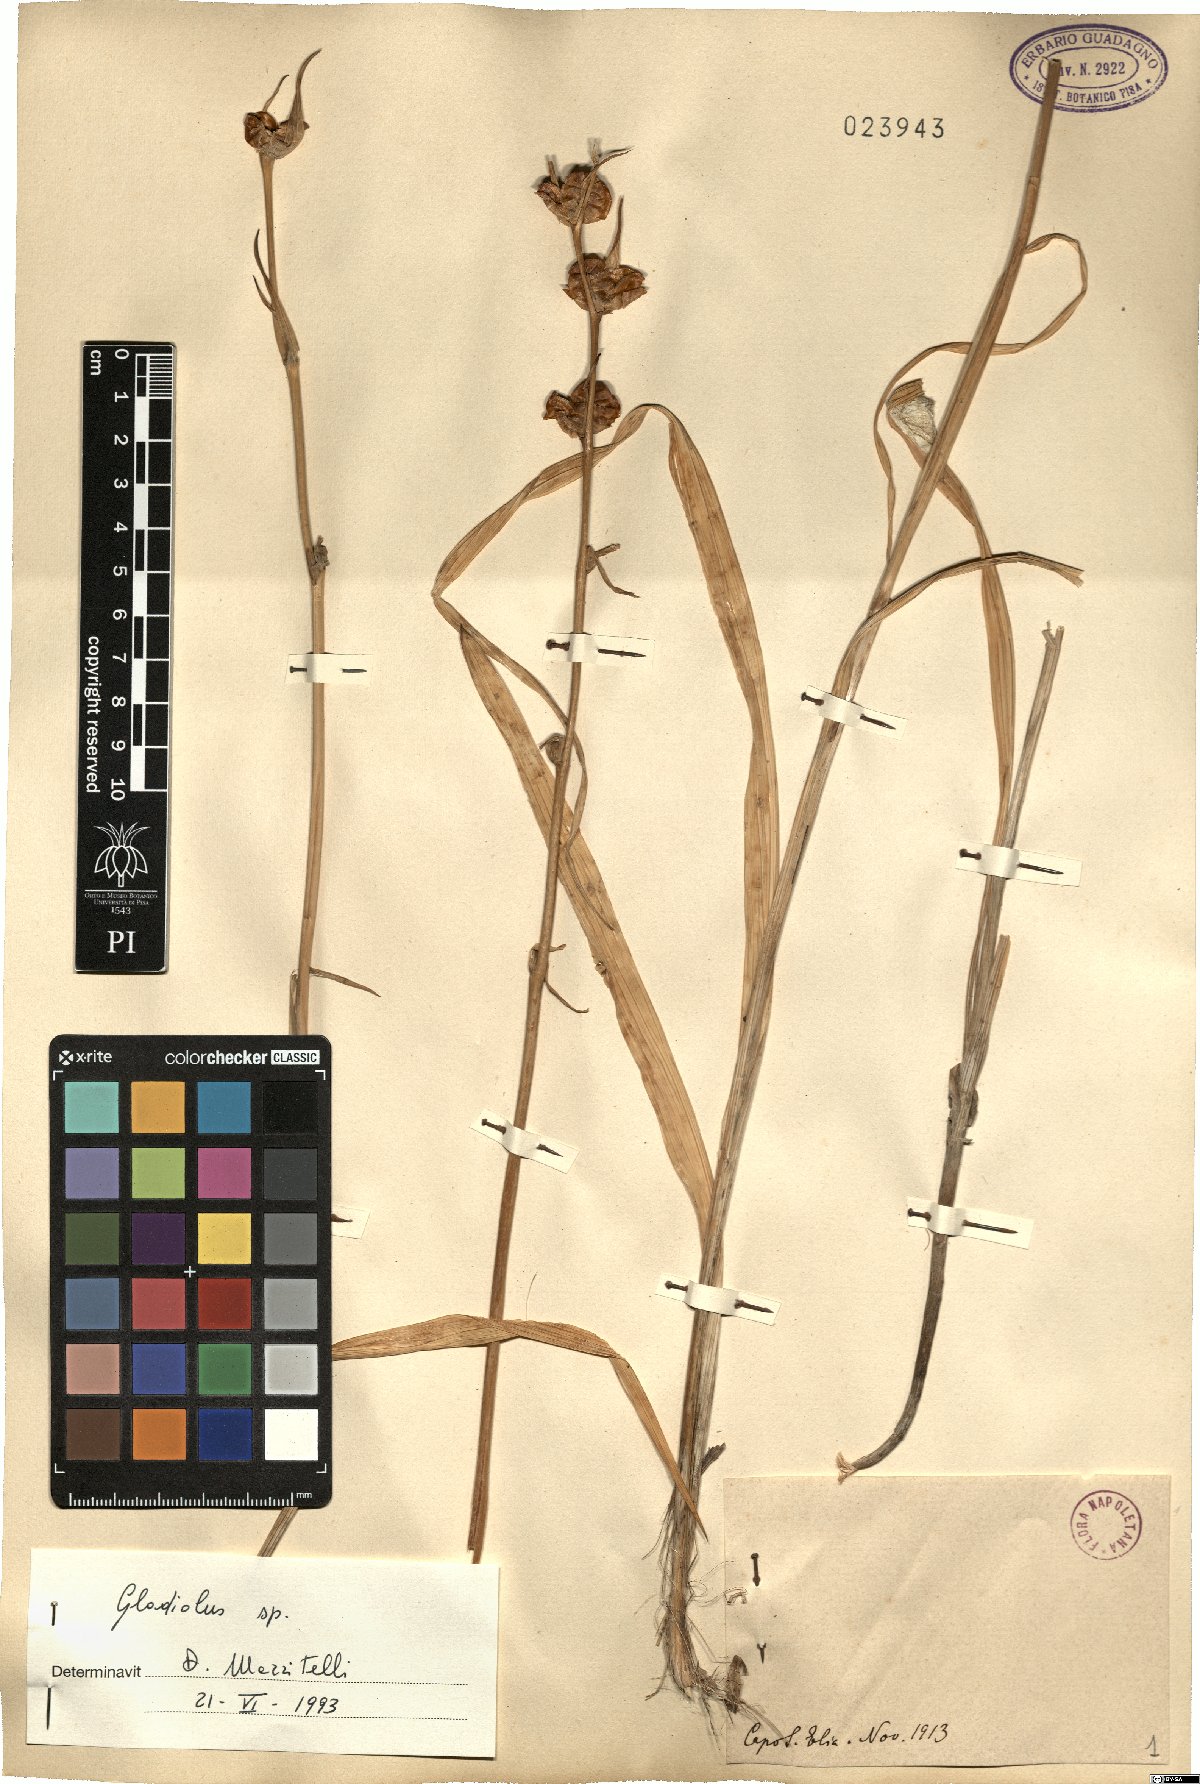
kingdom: Plantae
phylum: Tracheophyta
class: Liliopsida
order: Asparagales
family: Iridaceae
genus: Gladiolus
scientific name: Gladiolus
